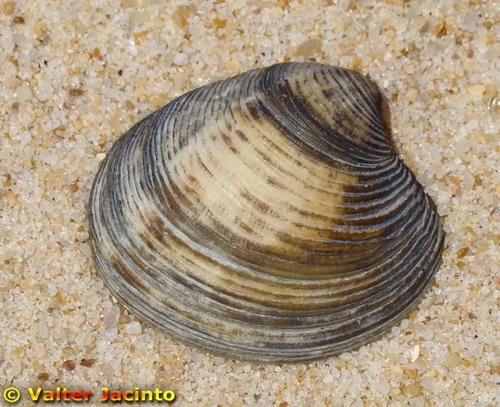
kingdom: Animalia
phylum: Mollusca
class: Bivalvia
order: Venerida
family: Veneridae
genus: Chamelea
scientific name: Chamelea gallina
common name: Chicken venus
